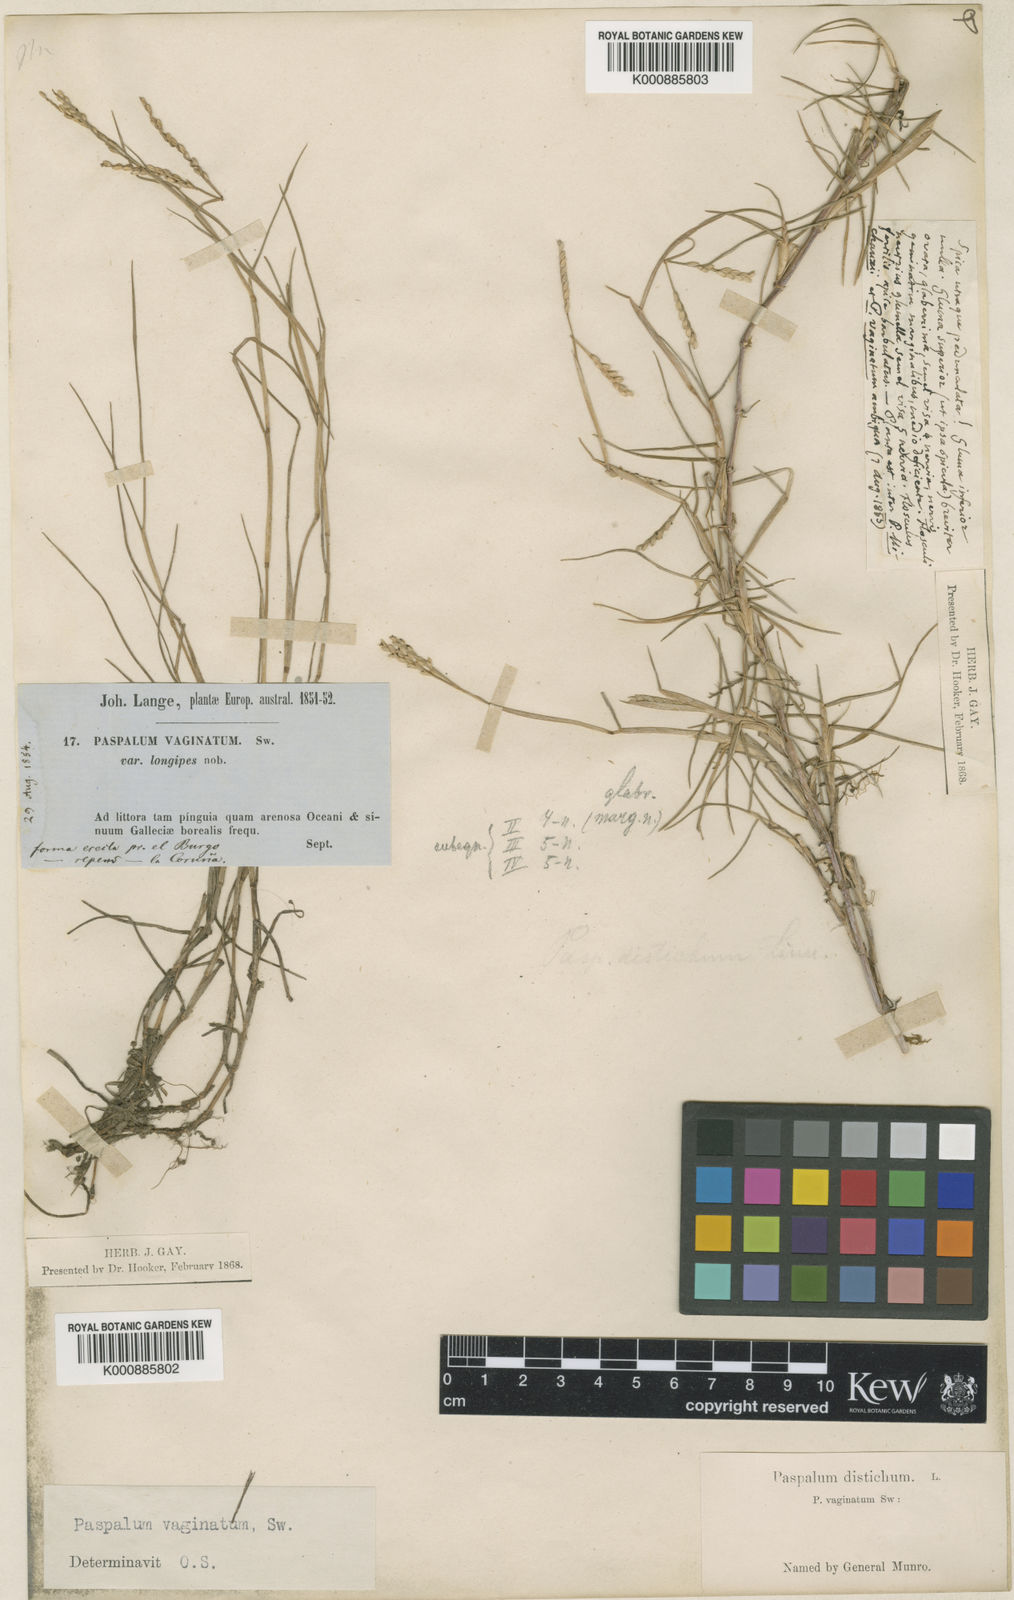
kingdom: Plantae
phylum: Tracheophyta
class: Liliopsida
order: Poales
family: Poaceae
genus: Paspalum
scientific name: Paspalum vaginatum
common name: Seashore paspalum
